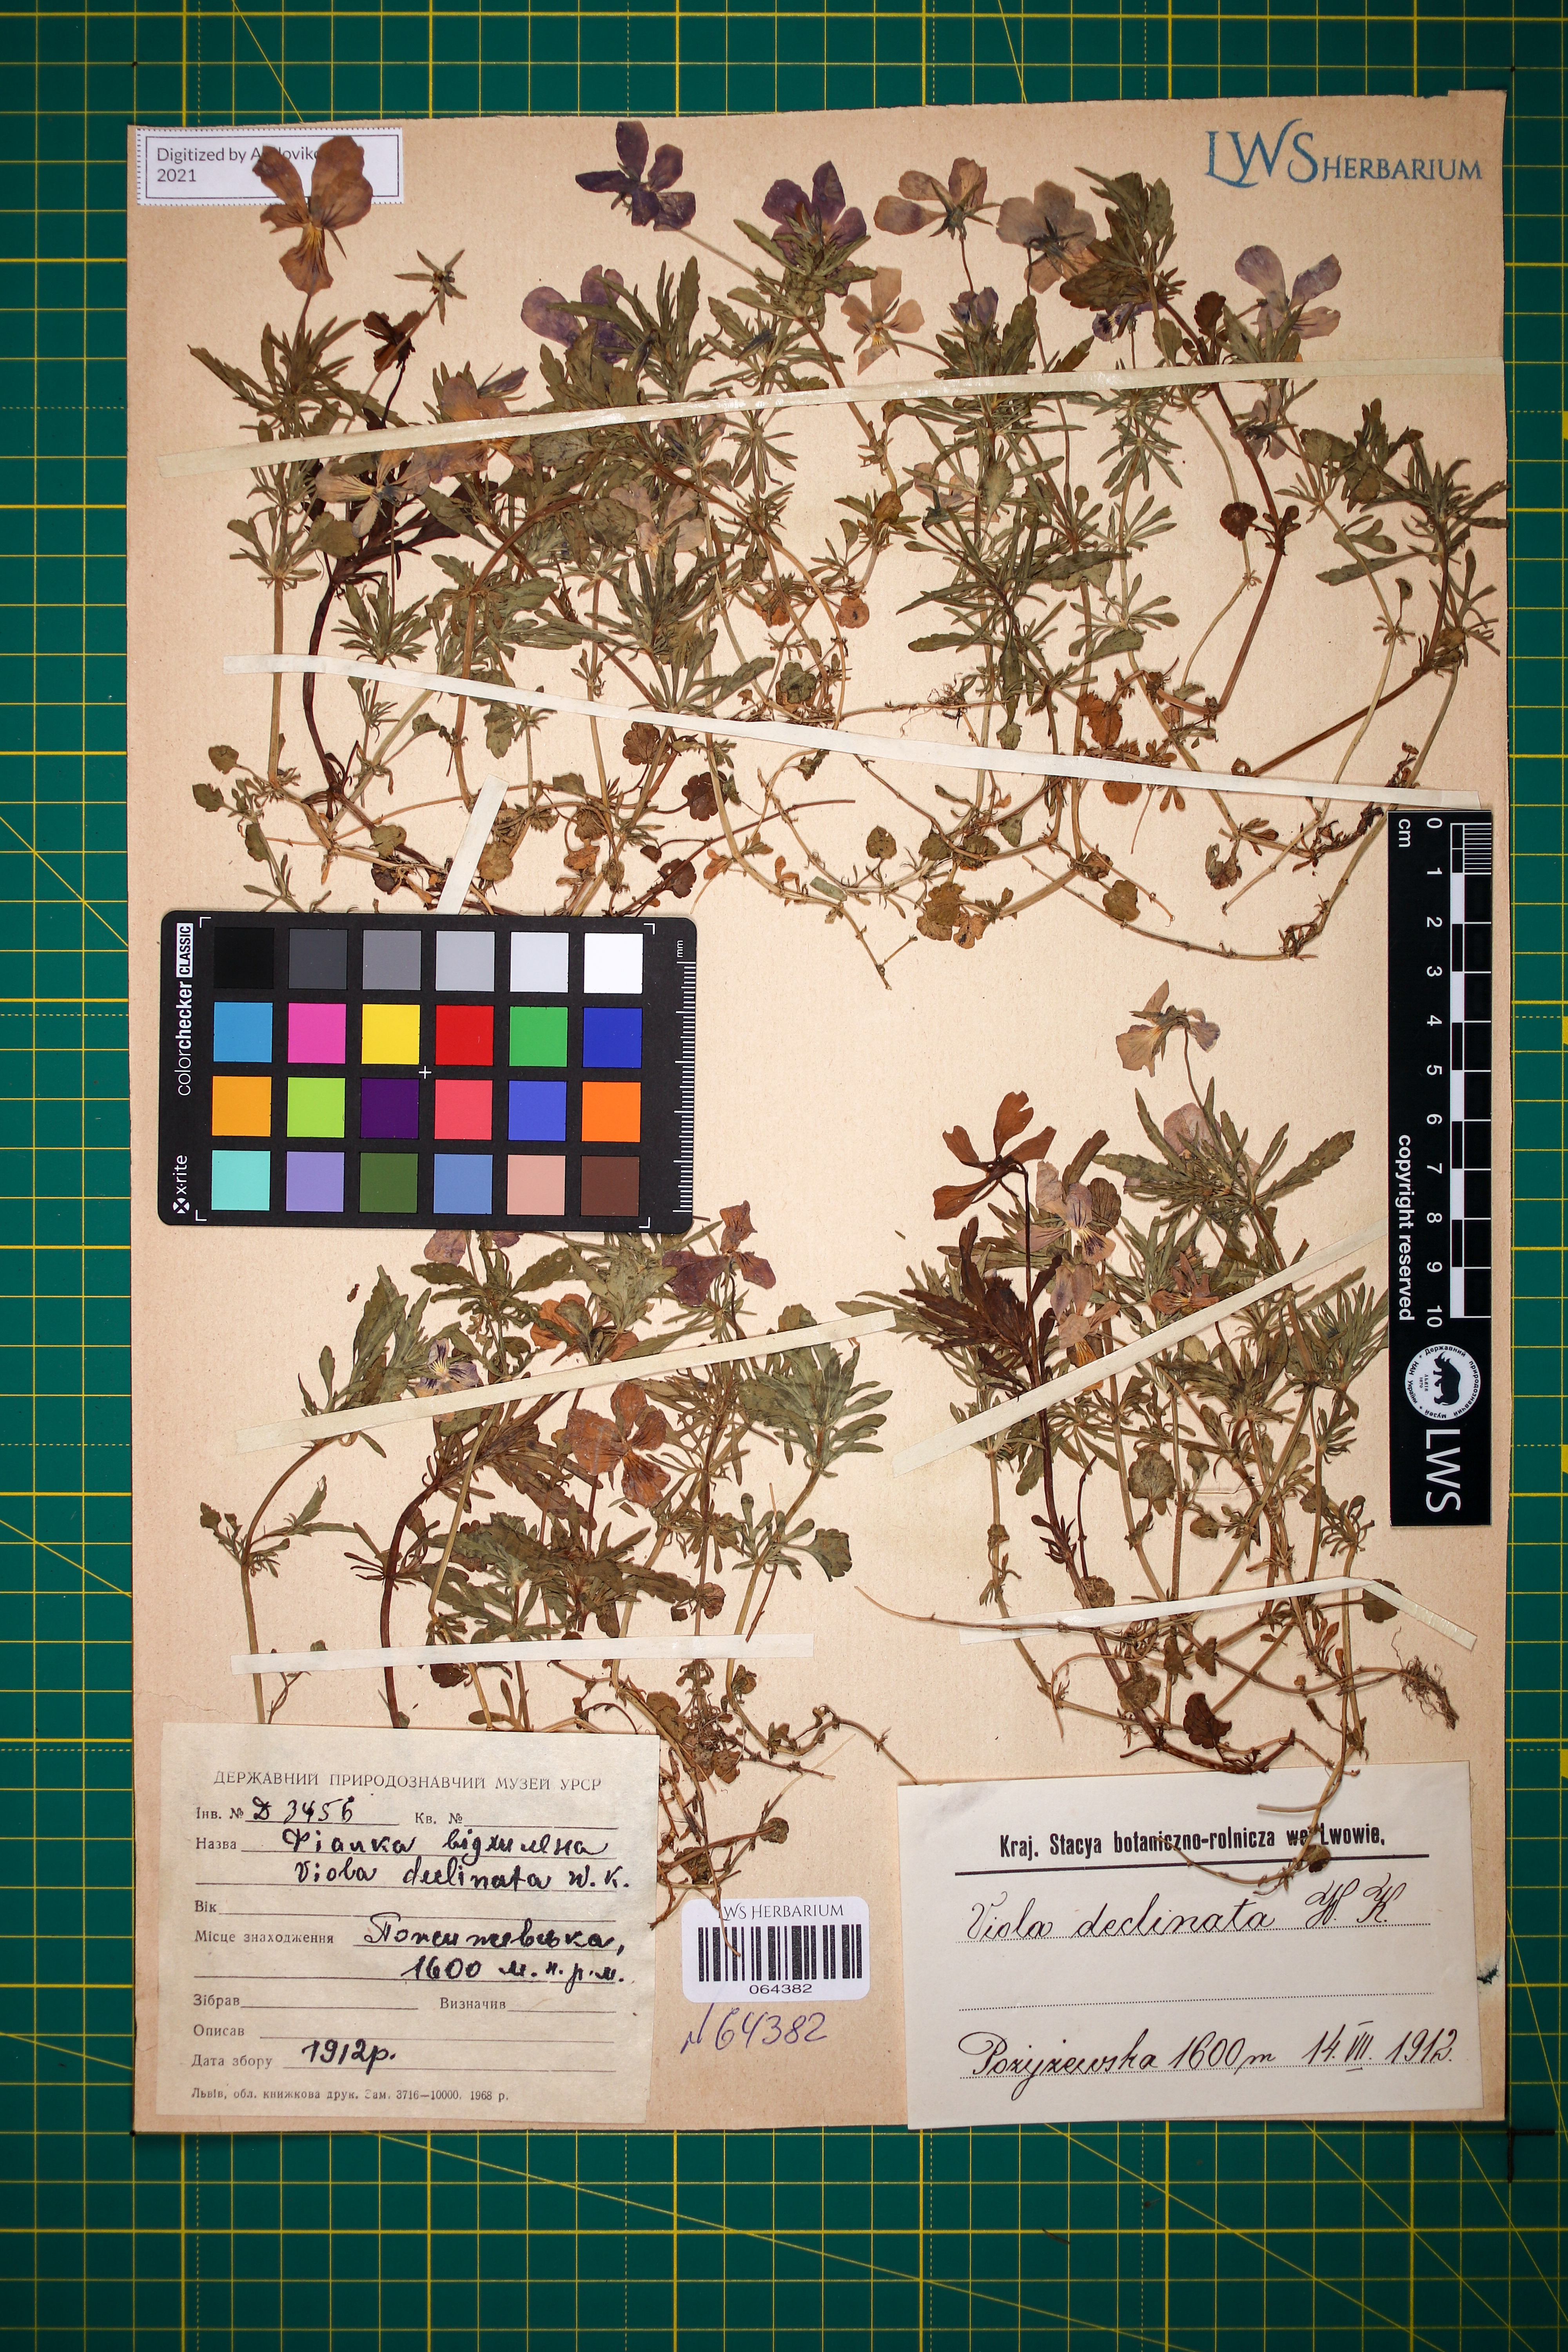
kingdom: Plantae
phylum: Tracheophyta
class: Magnoliopsida
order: Malpighiales
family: Violaceae
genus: Viola
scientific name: Viola declinata
